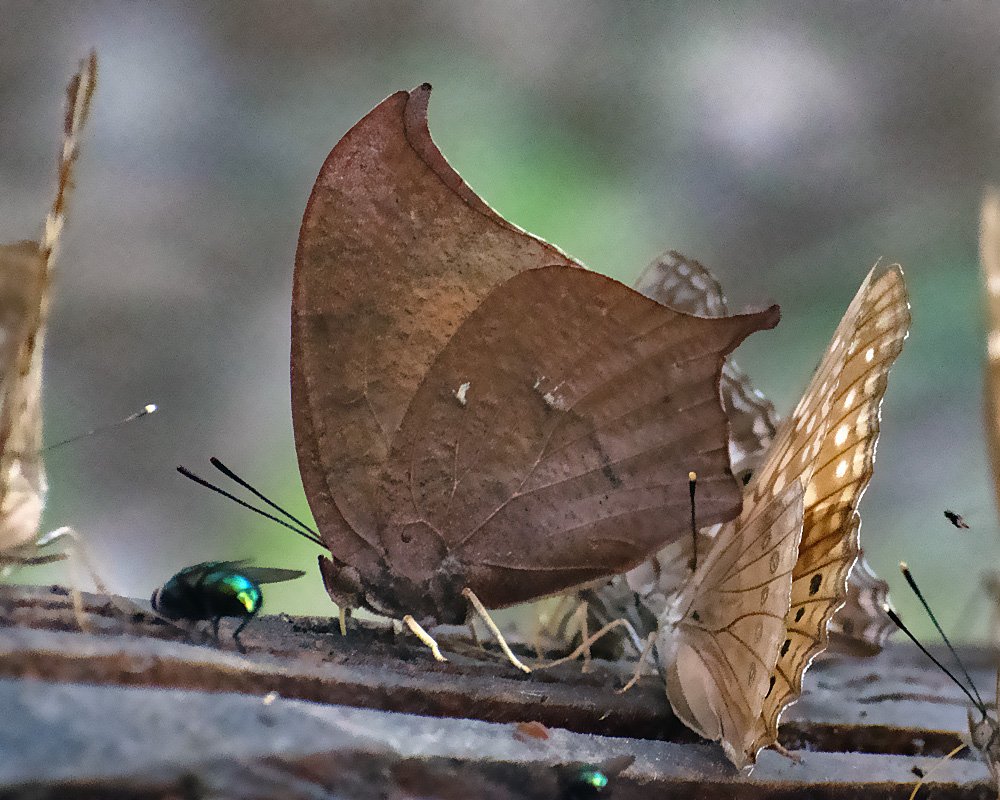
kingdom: Animalia
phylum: Arthropoda
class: Insecta
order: Lepidoptera
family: Nymphalidae
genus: Anaea
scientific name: Anaea andria
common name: Goatweed Leafwing
